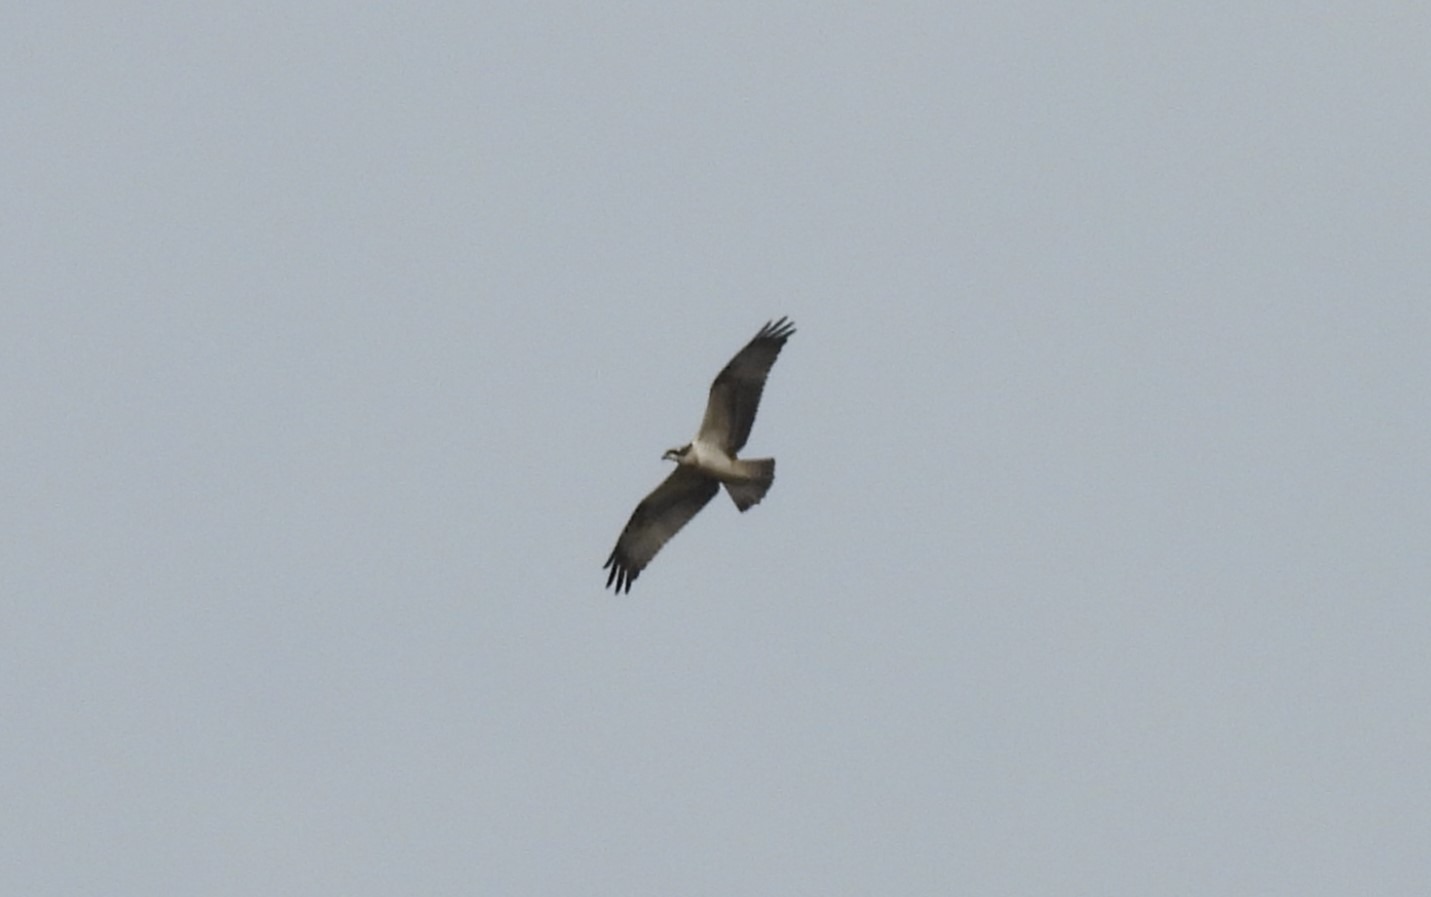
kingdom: Animalia
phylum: Chordata
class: Aves
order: Accipitriformes
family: Pandionidae
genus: Pandion
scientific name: Pandion haliaetus
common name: Fiskeørn
